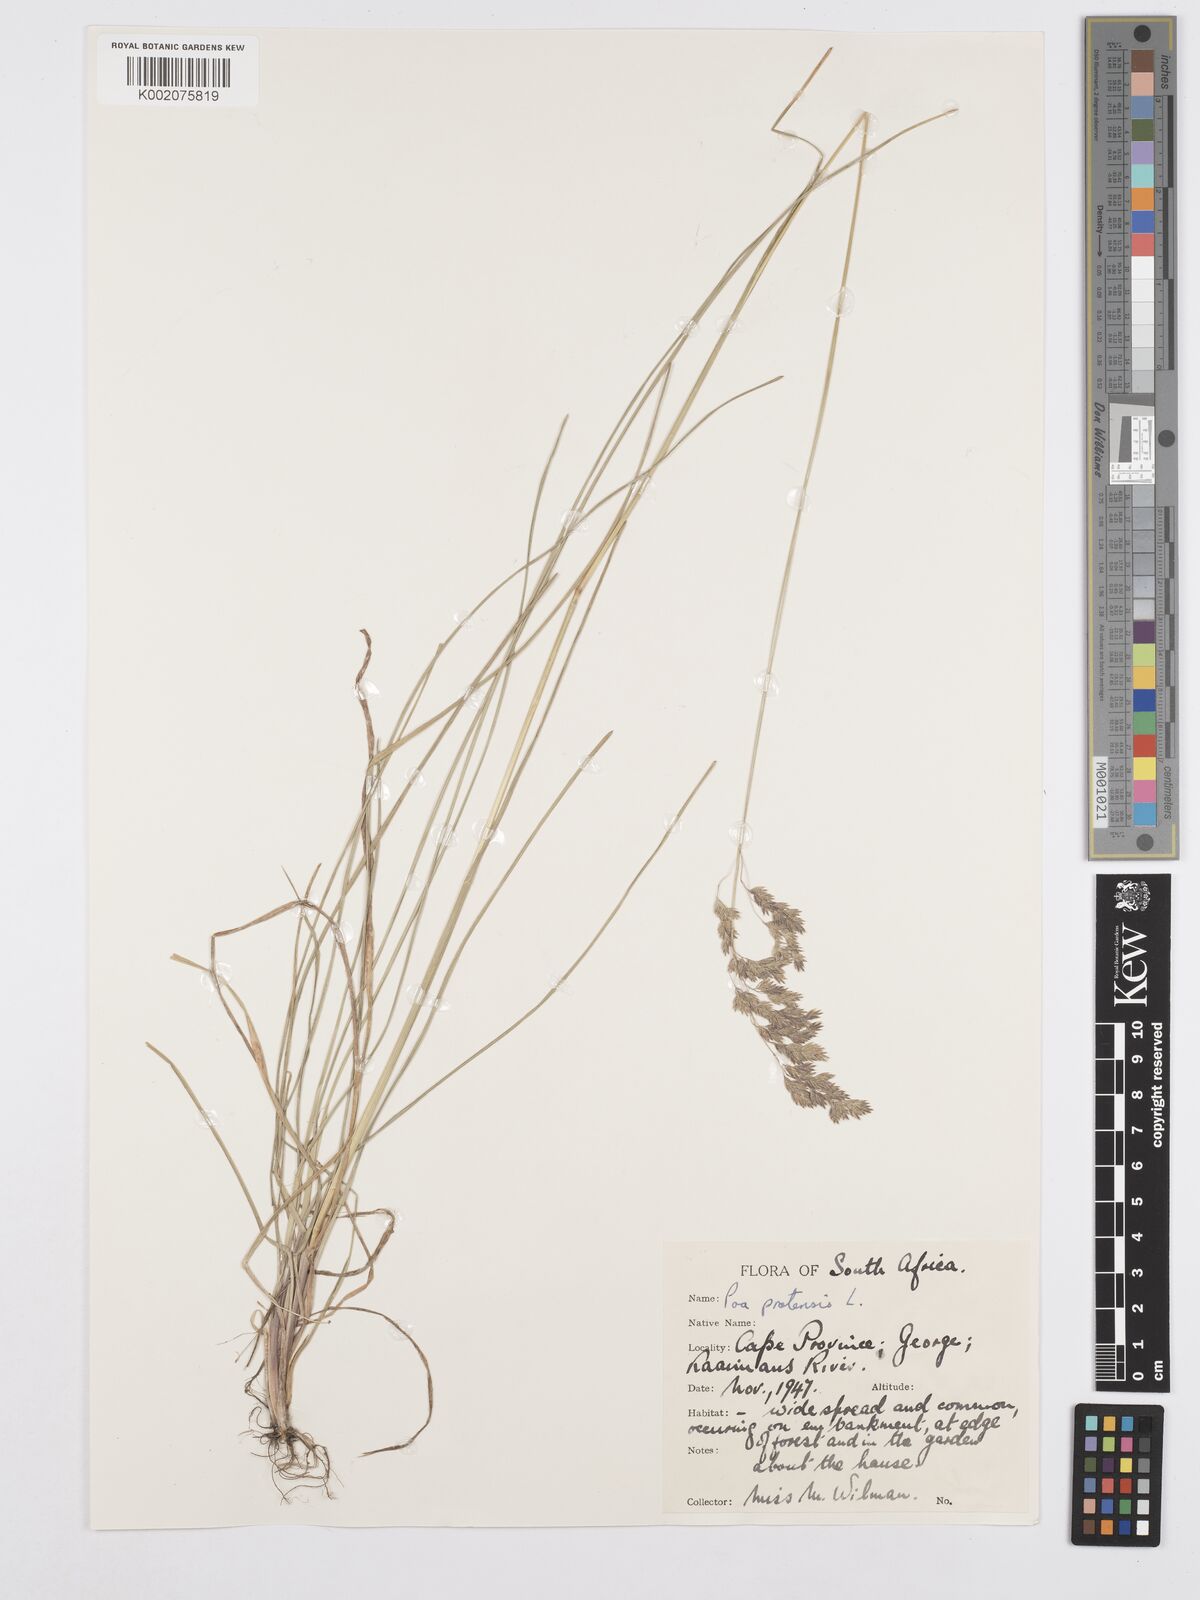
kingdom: Plantae
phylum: Tracheophyta
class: Liliopsida
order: Poales
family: Poaceae
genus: Poa
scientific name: Poa pratensis
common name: Kentucky bluegrass
